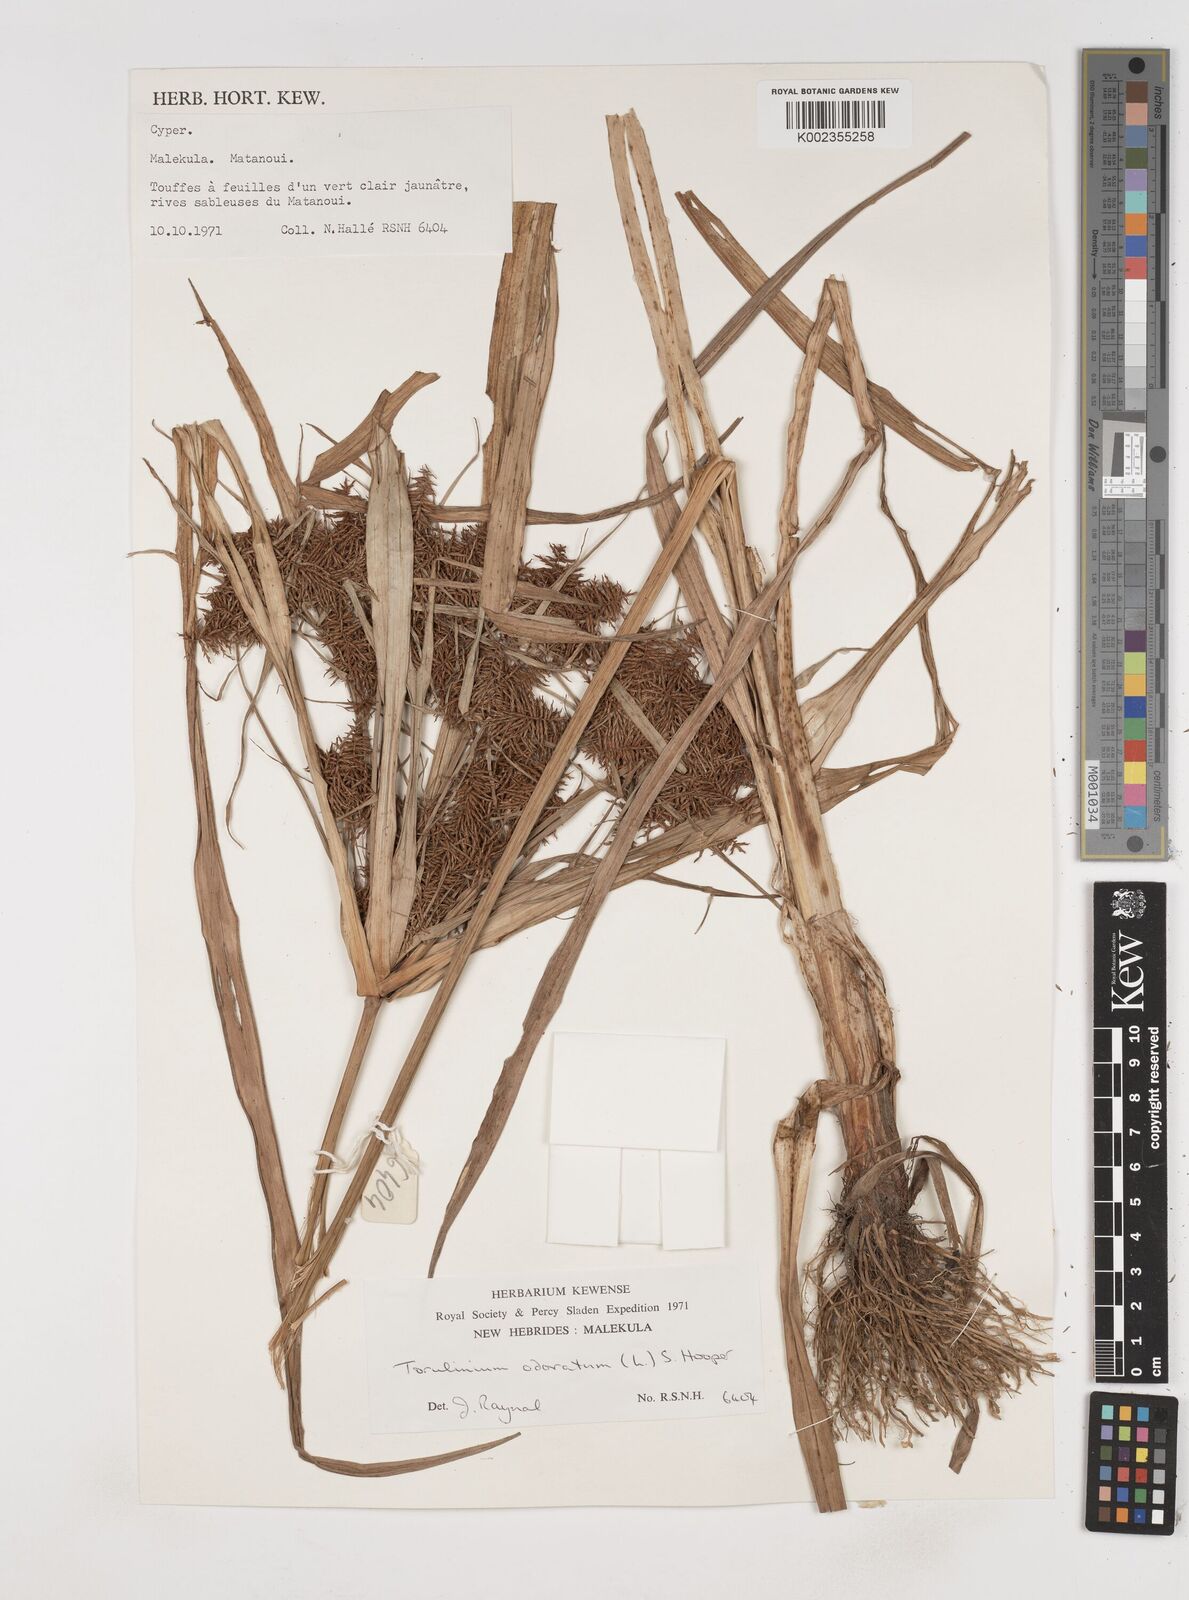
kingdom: Plantae
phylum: Tracheophyta
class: Liliopsida
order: Poales
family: Cyperaceae
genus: Cyperus
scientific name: Cyperus odoratus
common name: Fragrant flatsedge
